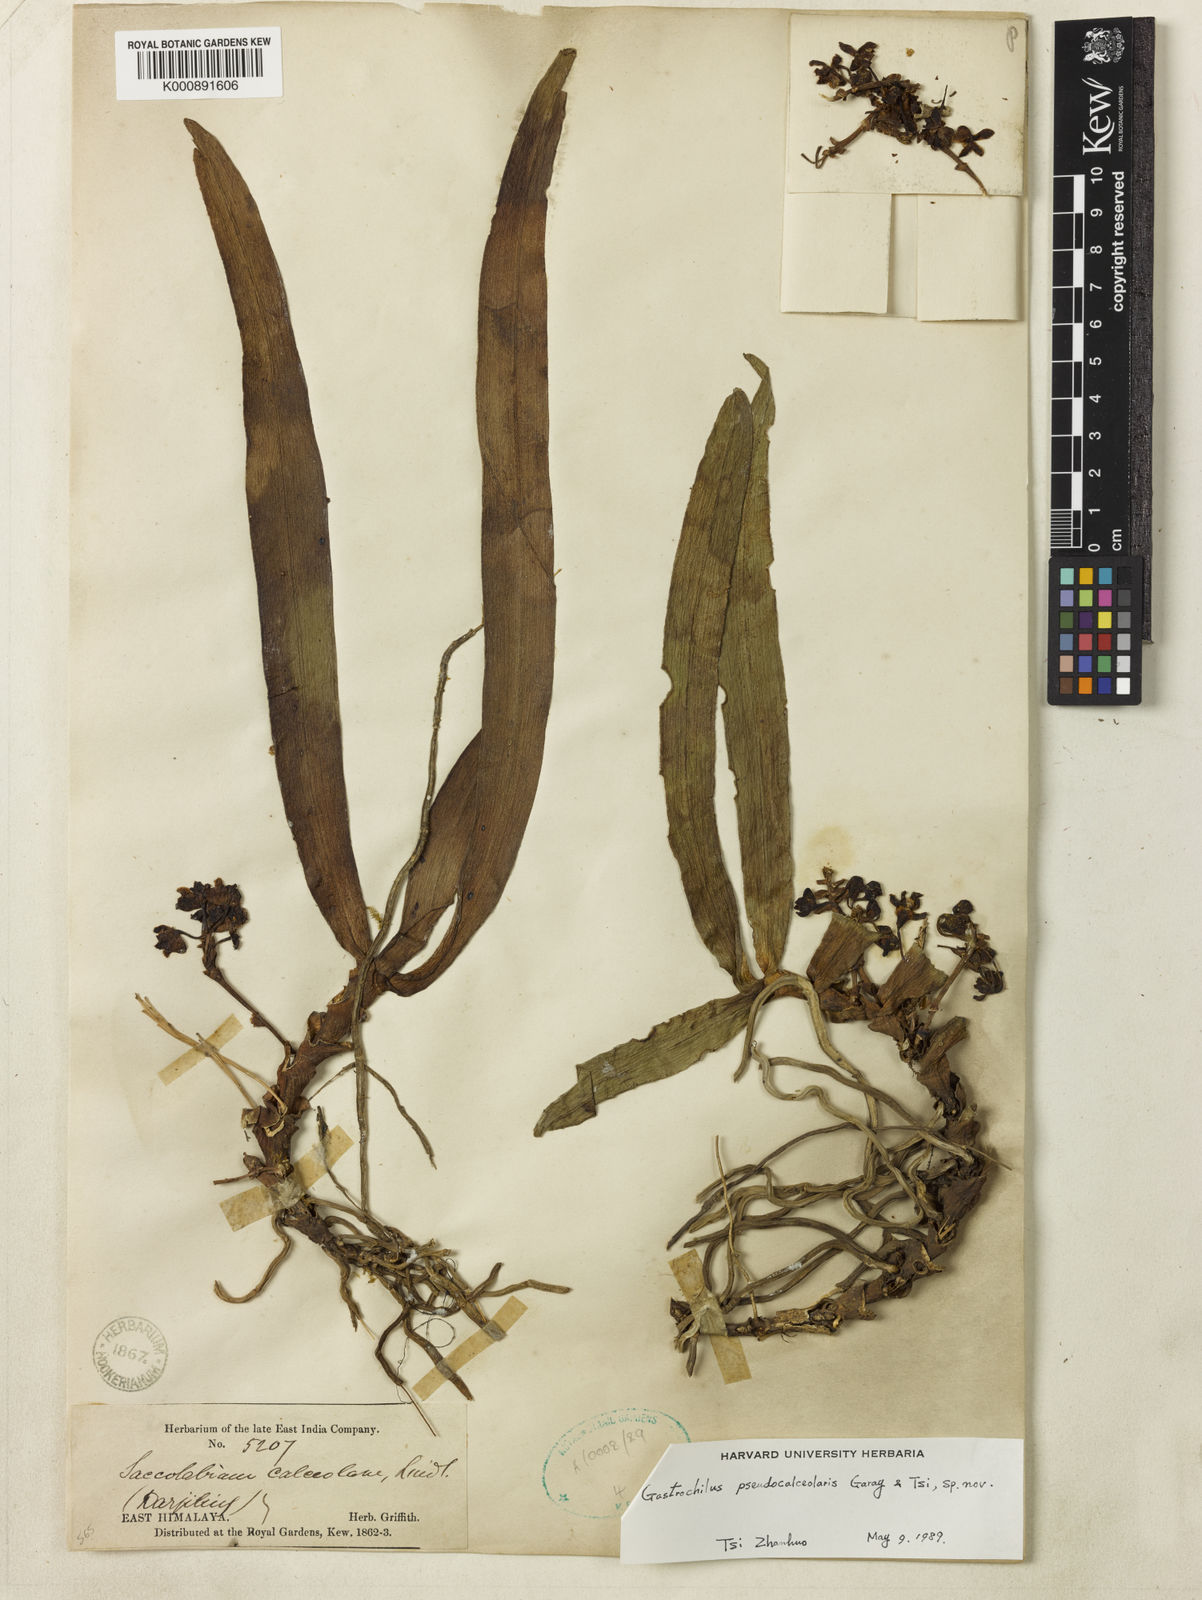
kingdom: Plantae
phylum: Tracheophyta
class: Liliopsida
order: Asparagales
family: Orchidaceae
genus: Gastrochilus
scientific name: Gastrochilus
